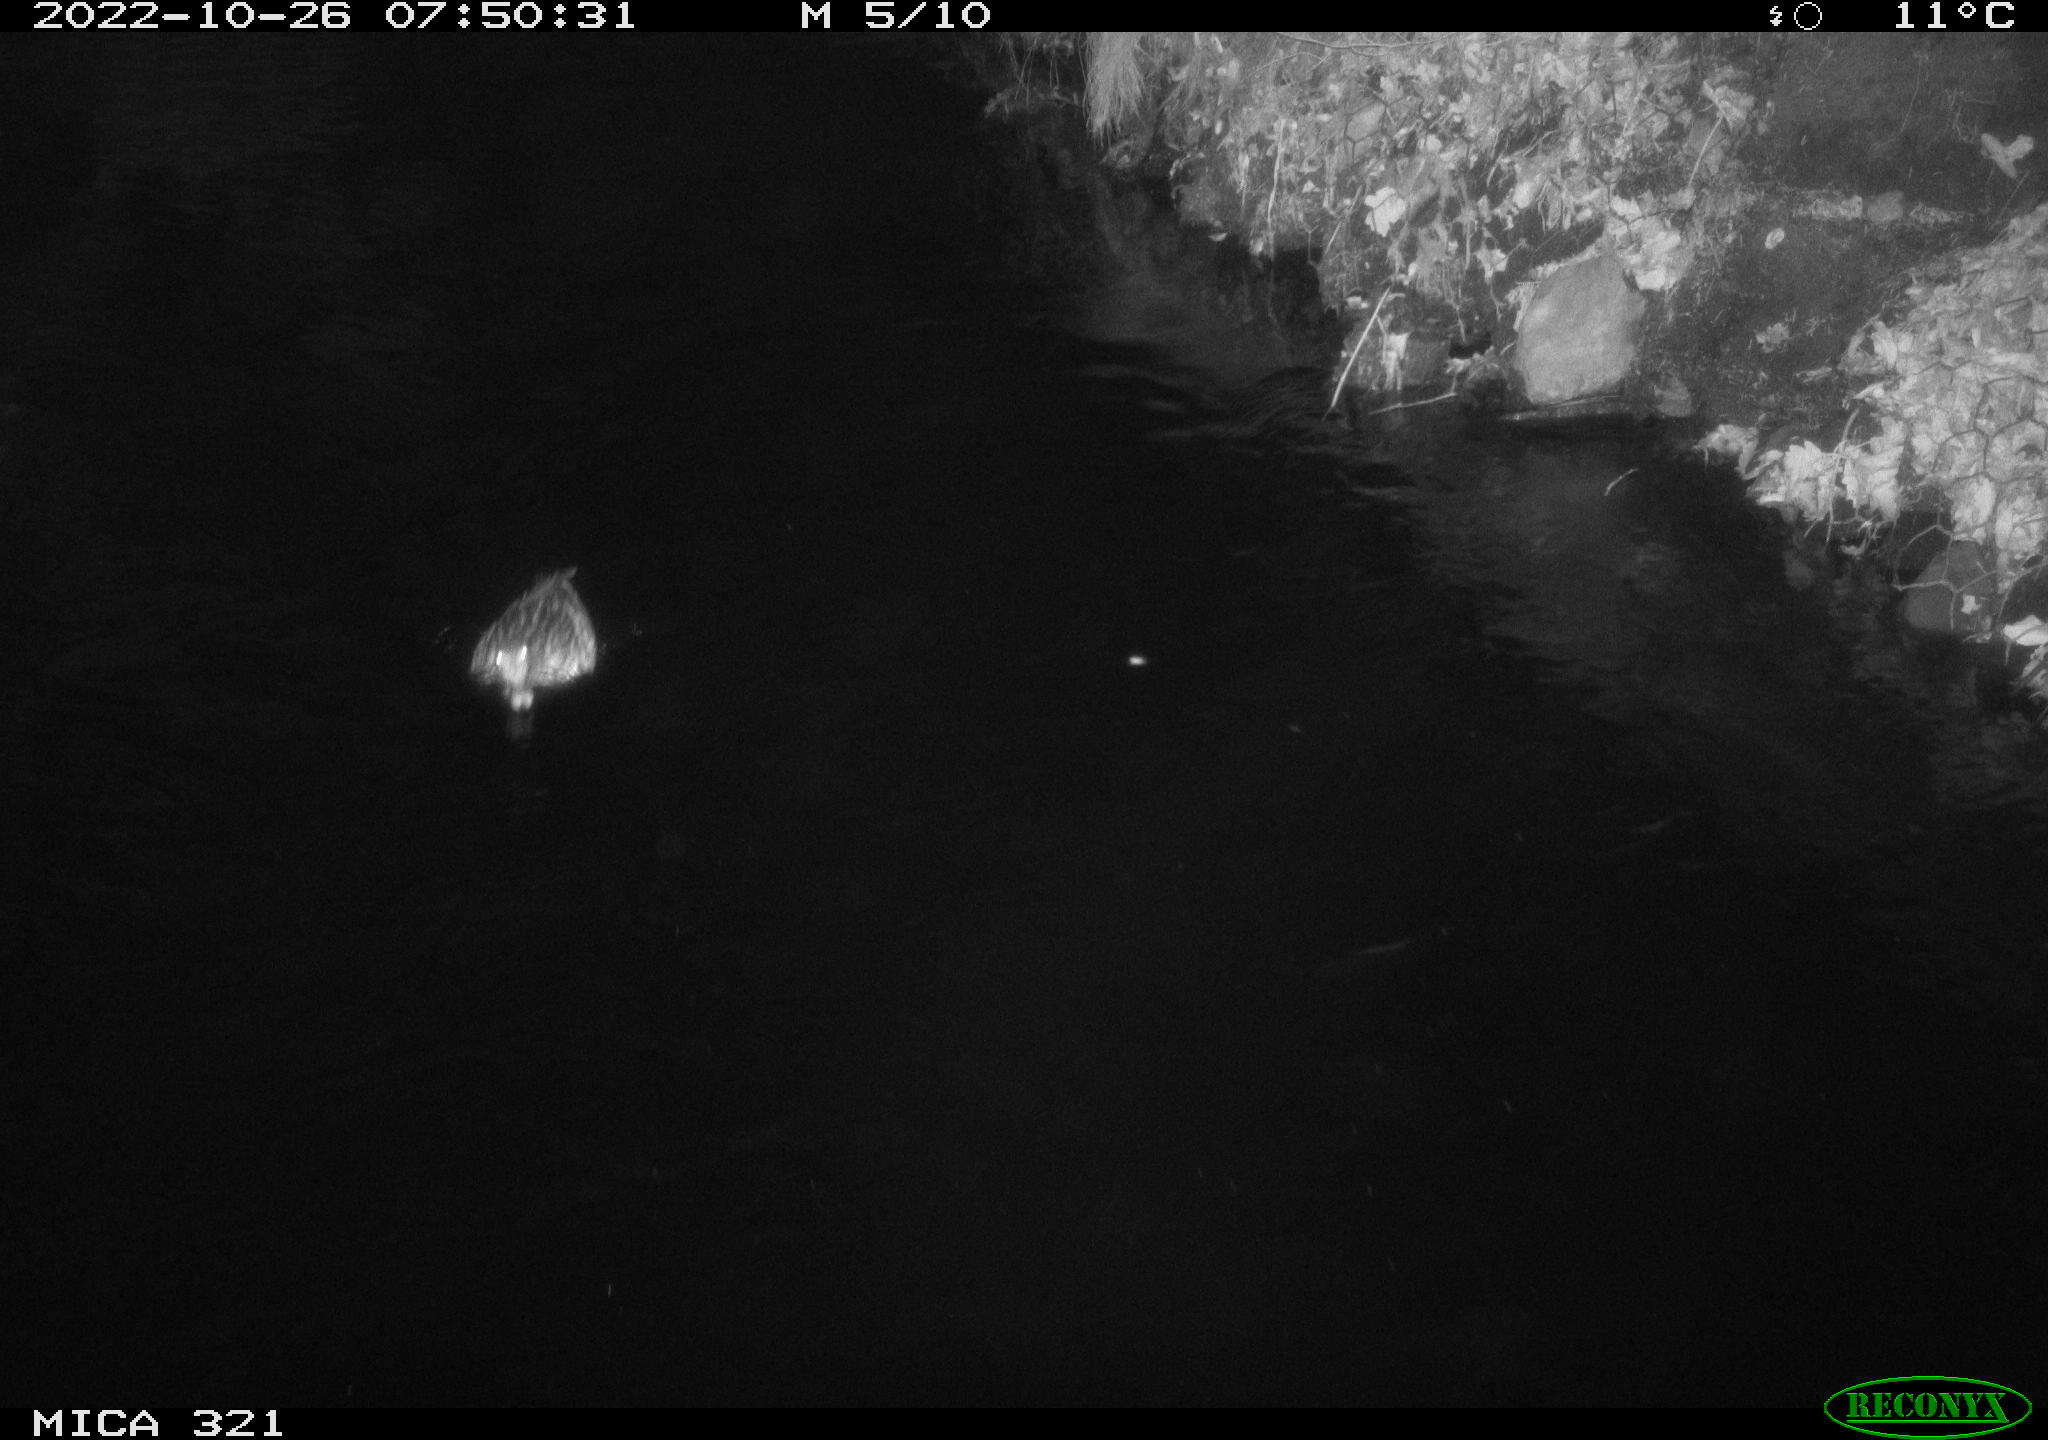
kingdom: Animalia
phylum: Chordata
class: Aves
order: Anseriformes
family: Anatidae
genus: Anas
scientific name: Anas
